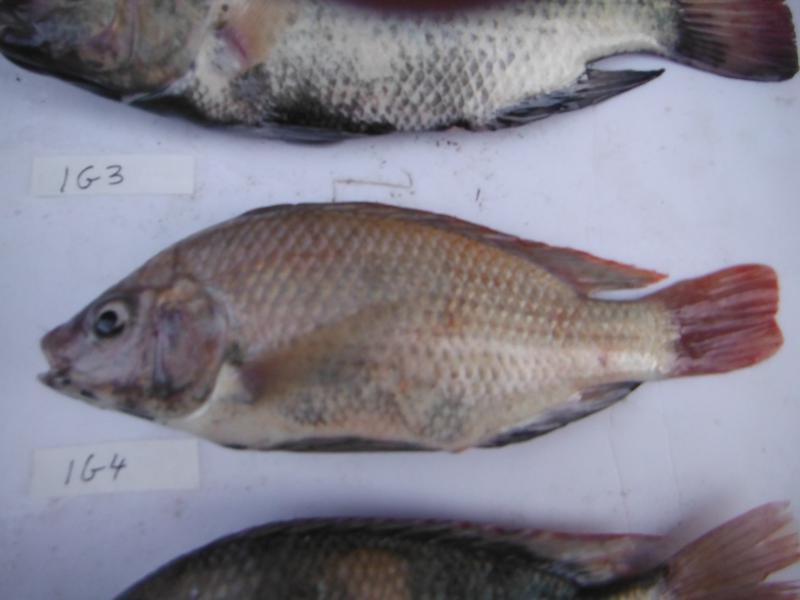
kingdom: Animalia
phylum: Chordata
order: Perciformes
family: Cichlidae
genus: Oreochromis
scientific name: Oreochromis rukwaensis
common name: Lake rukwa tilapia
